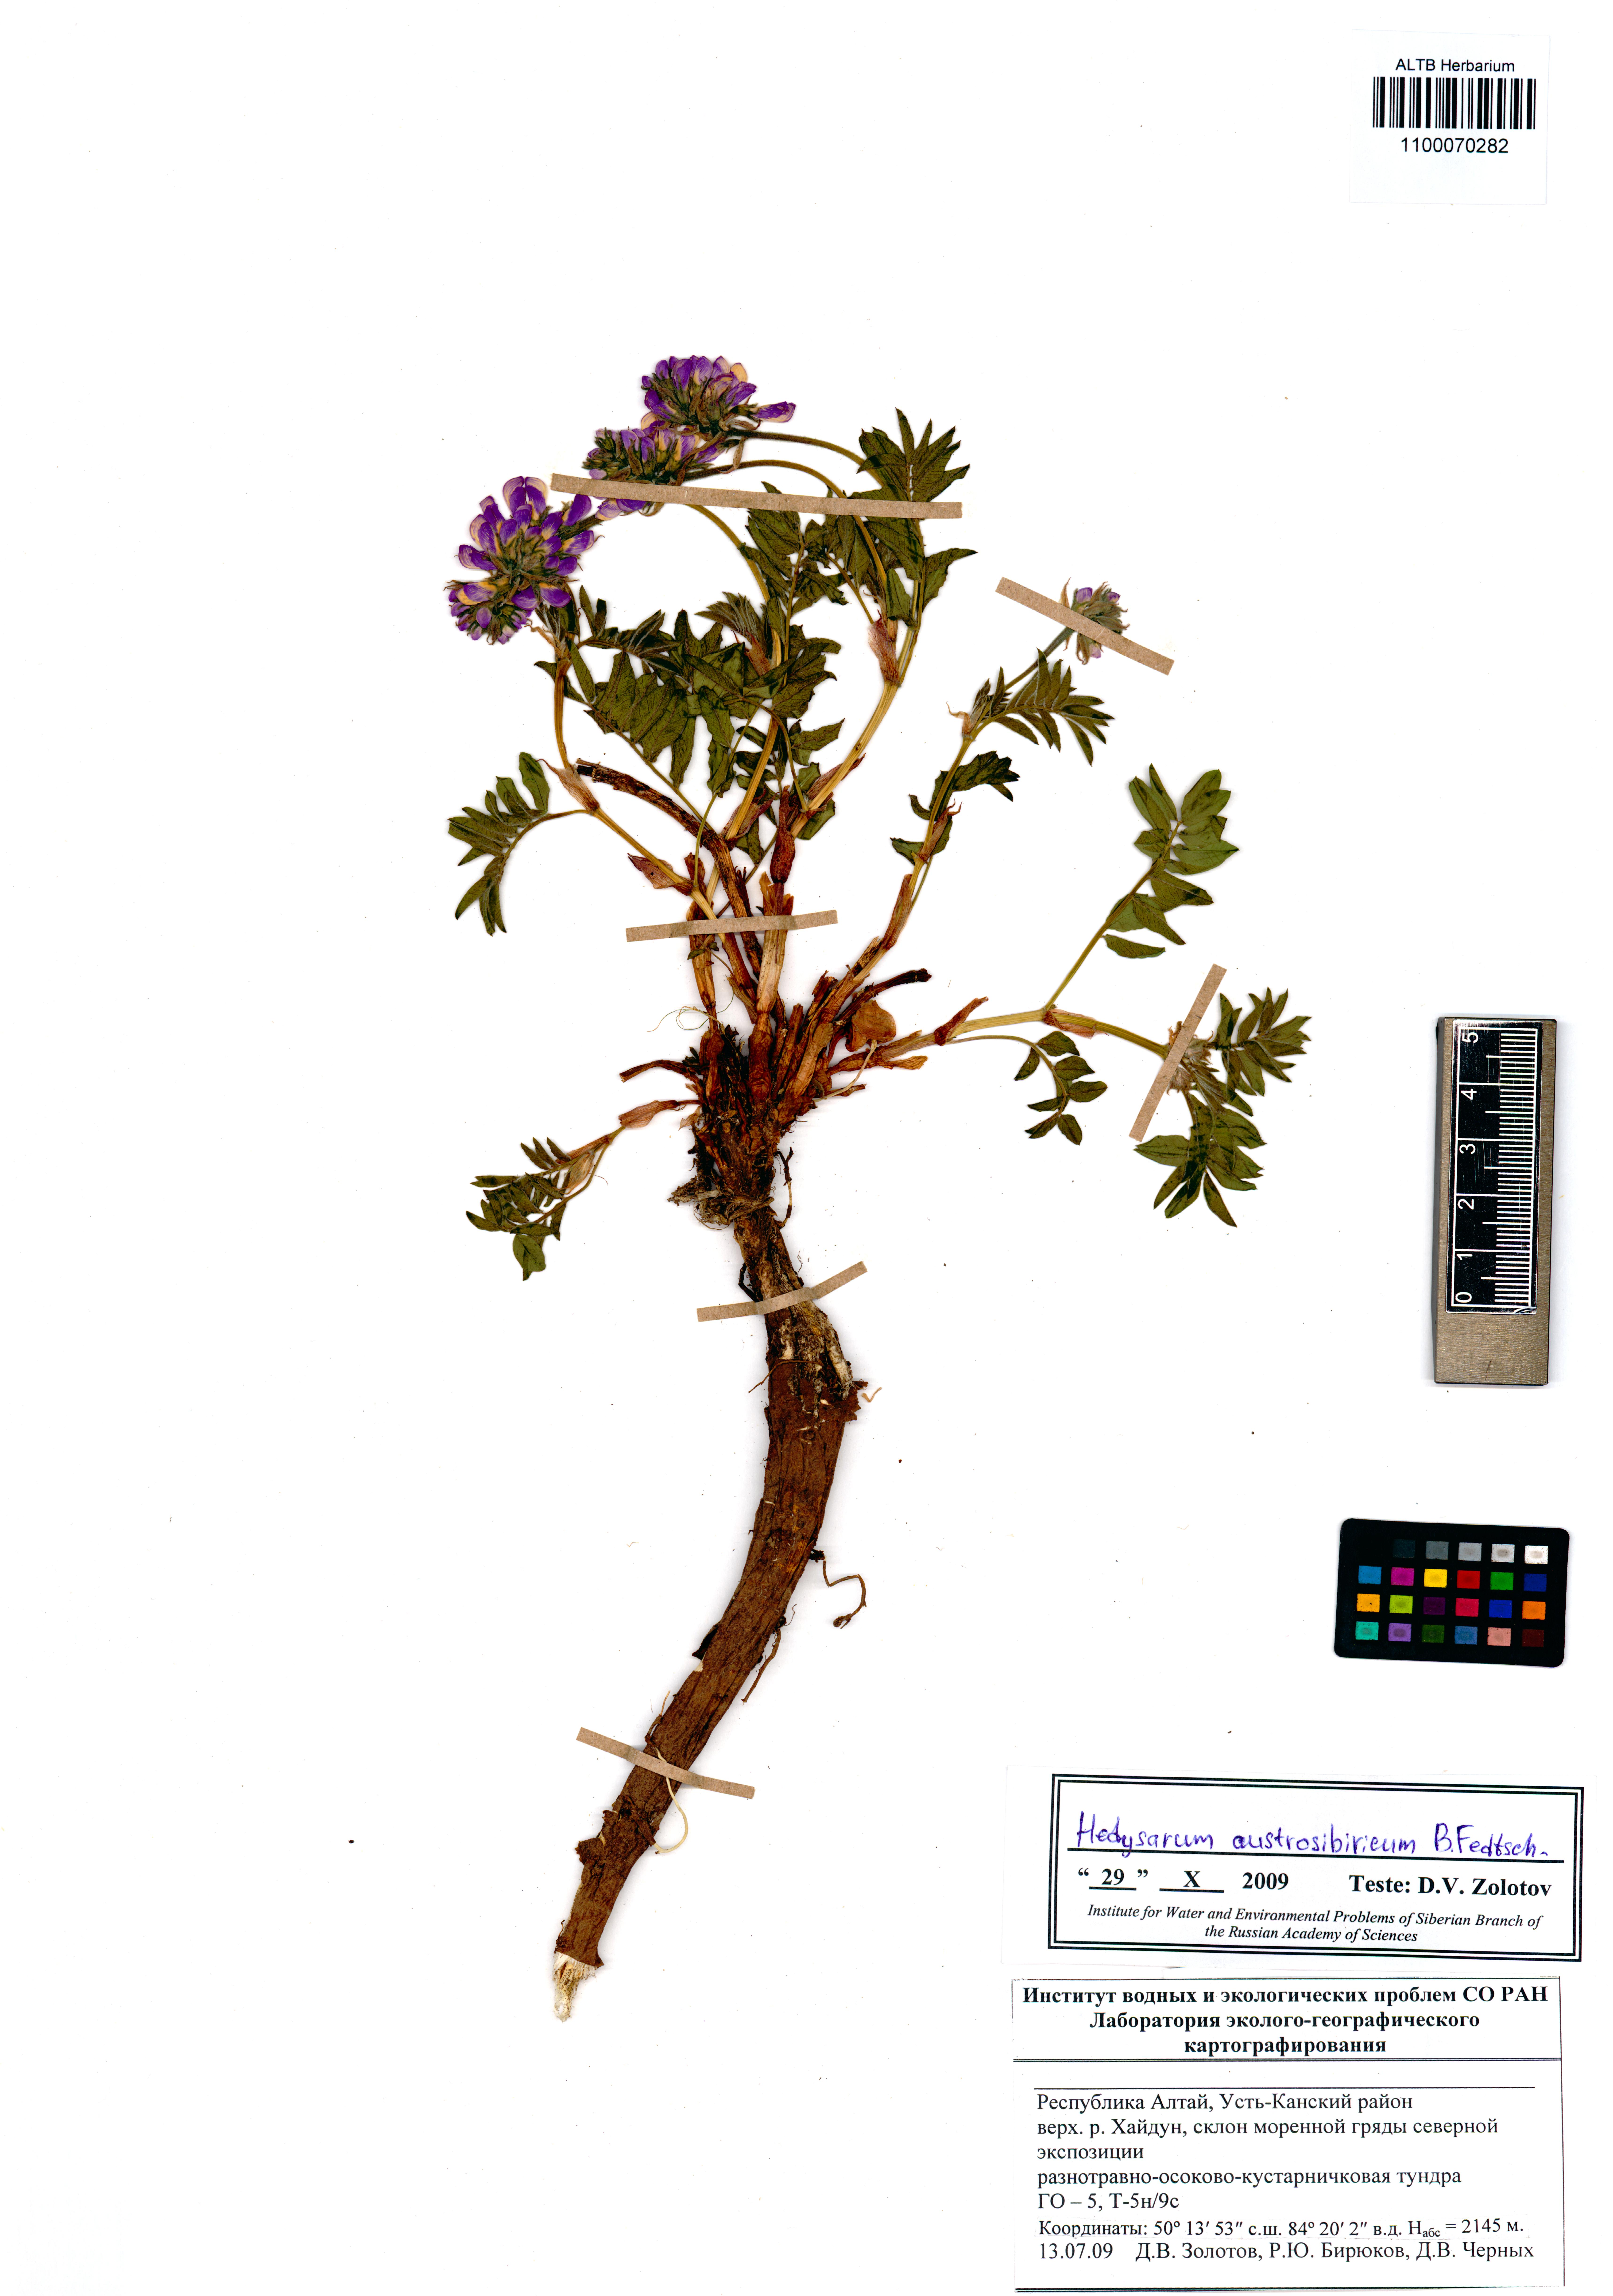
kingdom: Plantae
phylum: Tracheophyta
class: Magnoliopsida
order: Fabales
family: Fabaceae
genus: Hedysarum
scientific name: Hedysarum neglectum
